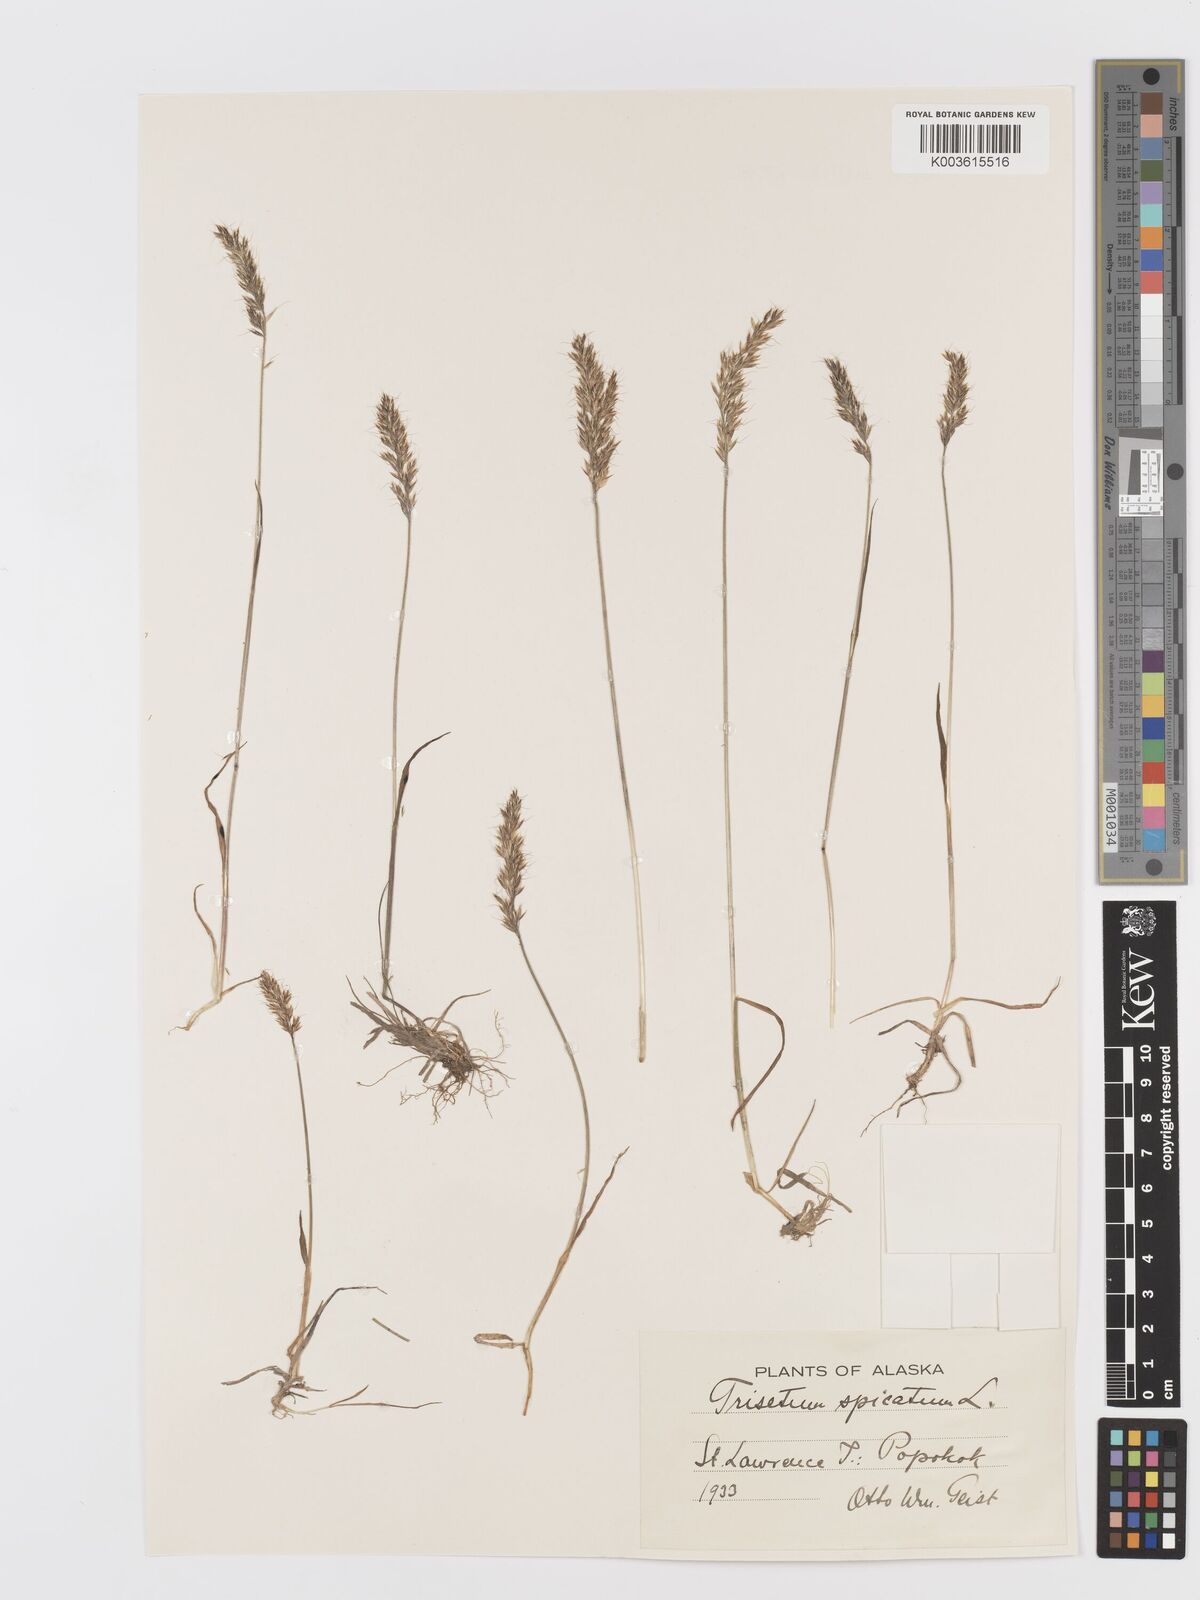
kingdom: Plantae
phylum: Tracheophyta
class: Liliopsida
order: Poales
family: Poaceae
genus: Koeleria
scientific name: Koeleria spicata
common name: Mountain trisetum
